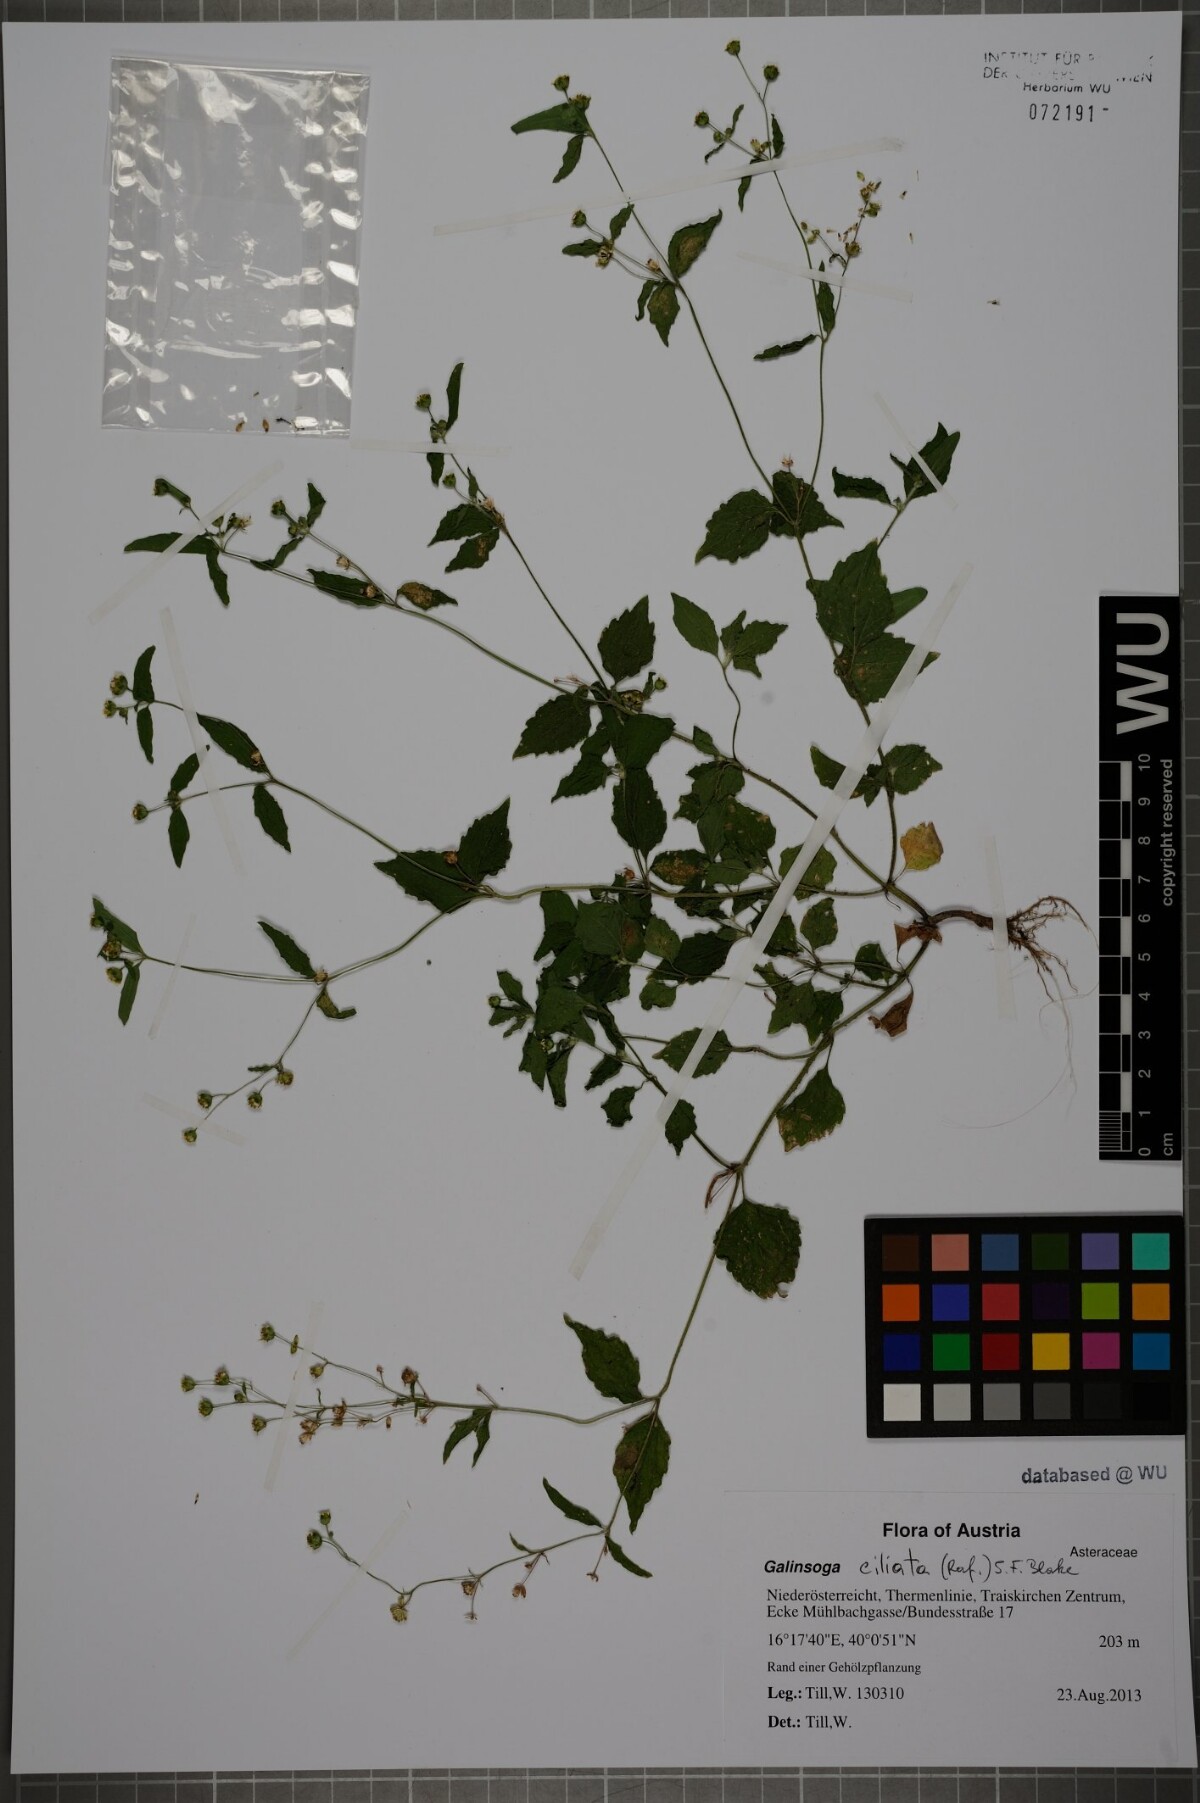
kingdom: Plantae
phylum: Tracheophyta
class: Magnoliopsida
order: Asterales
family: Asteraceae
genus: Galinsoga
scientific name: Galinsoga quadriradiata
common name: Shaggy soldier
